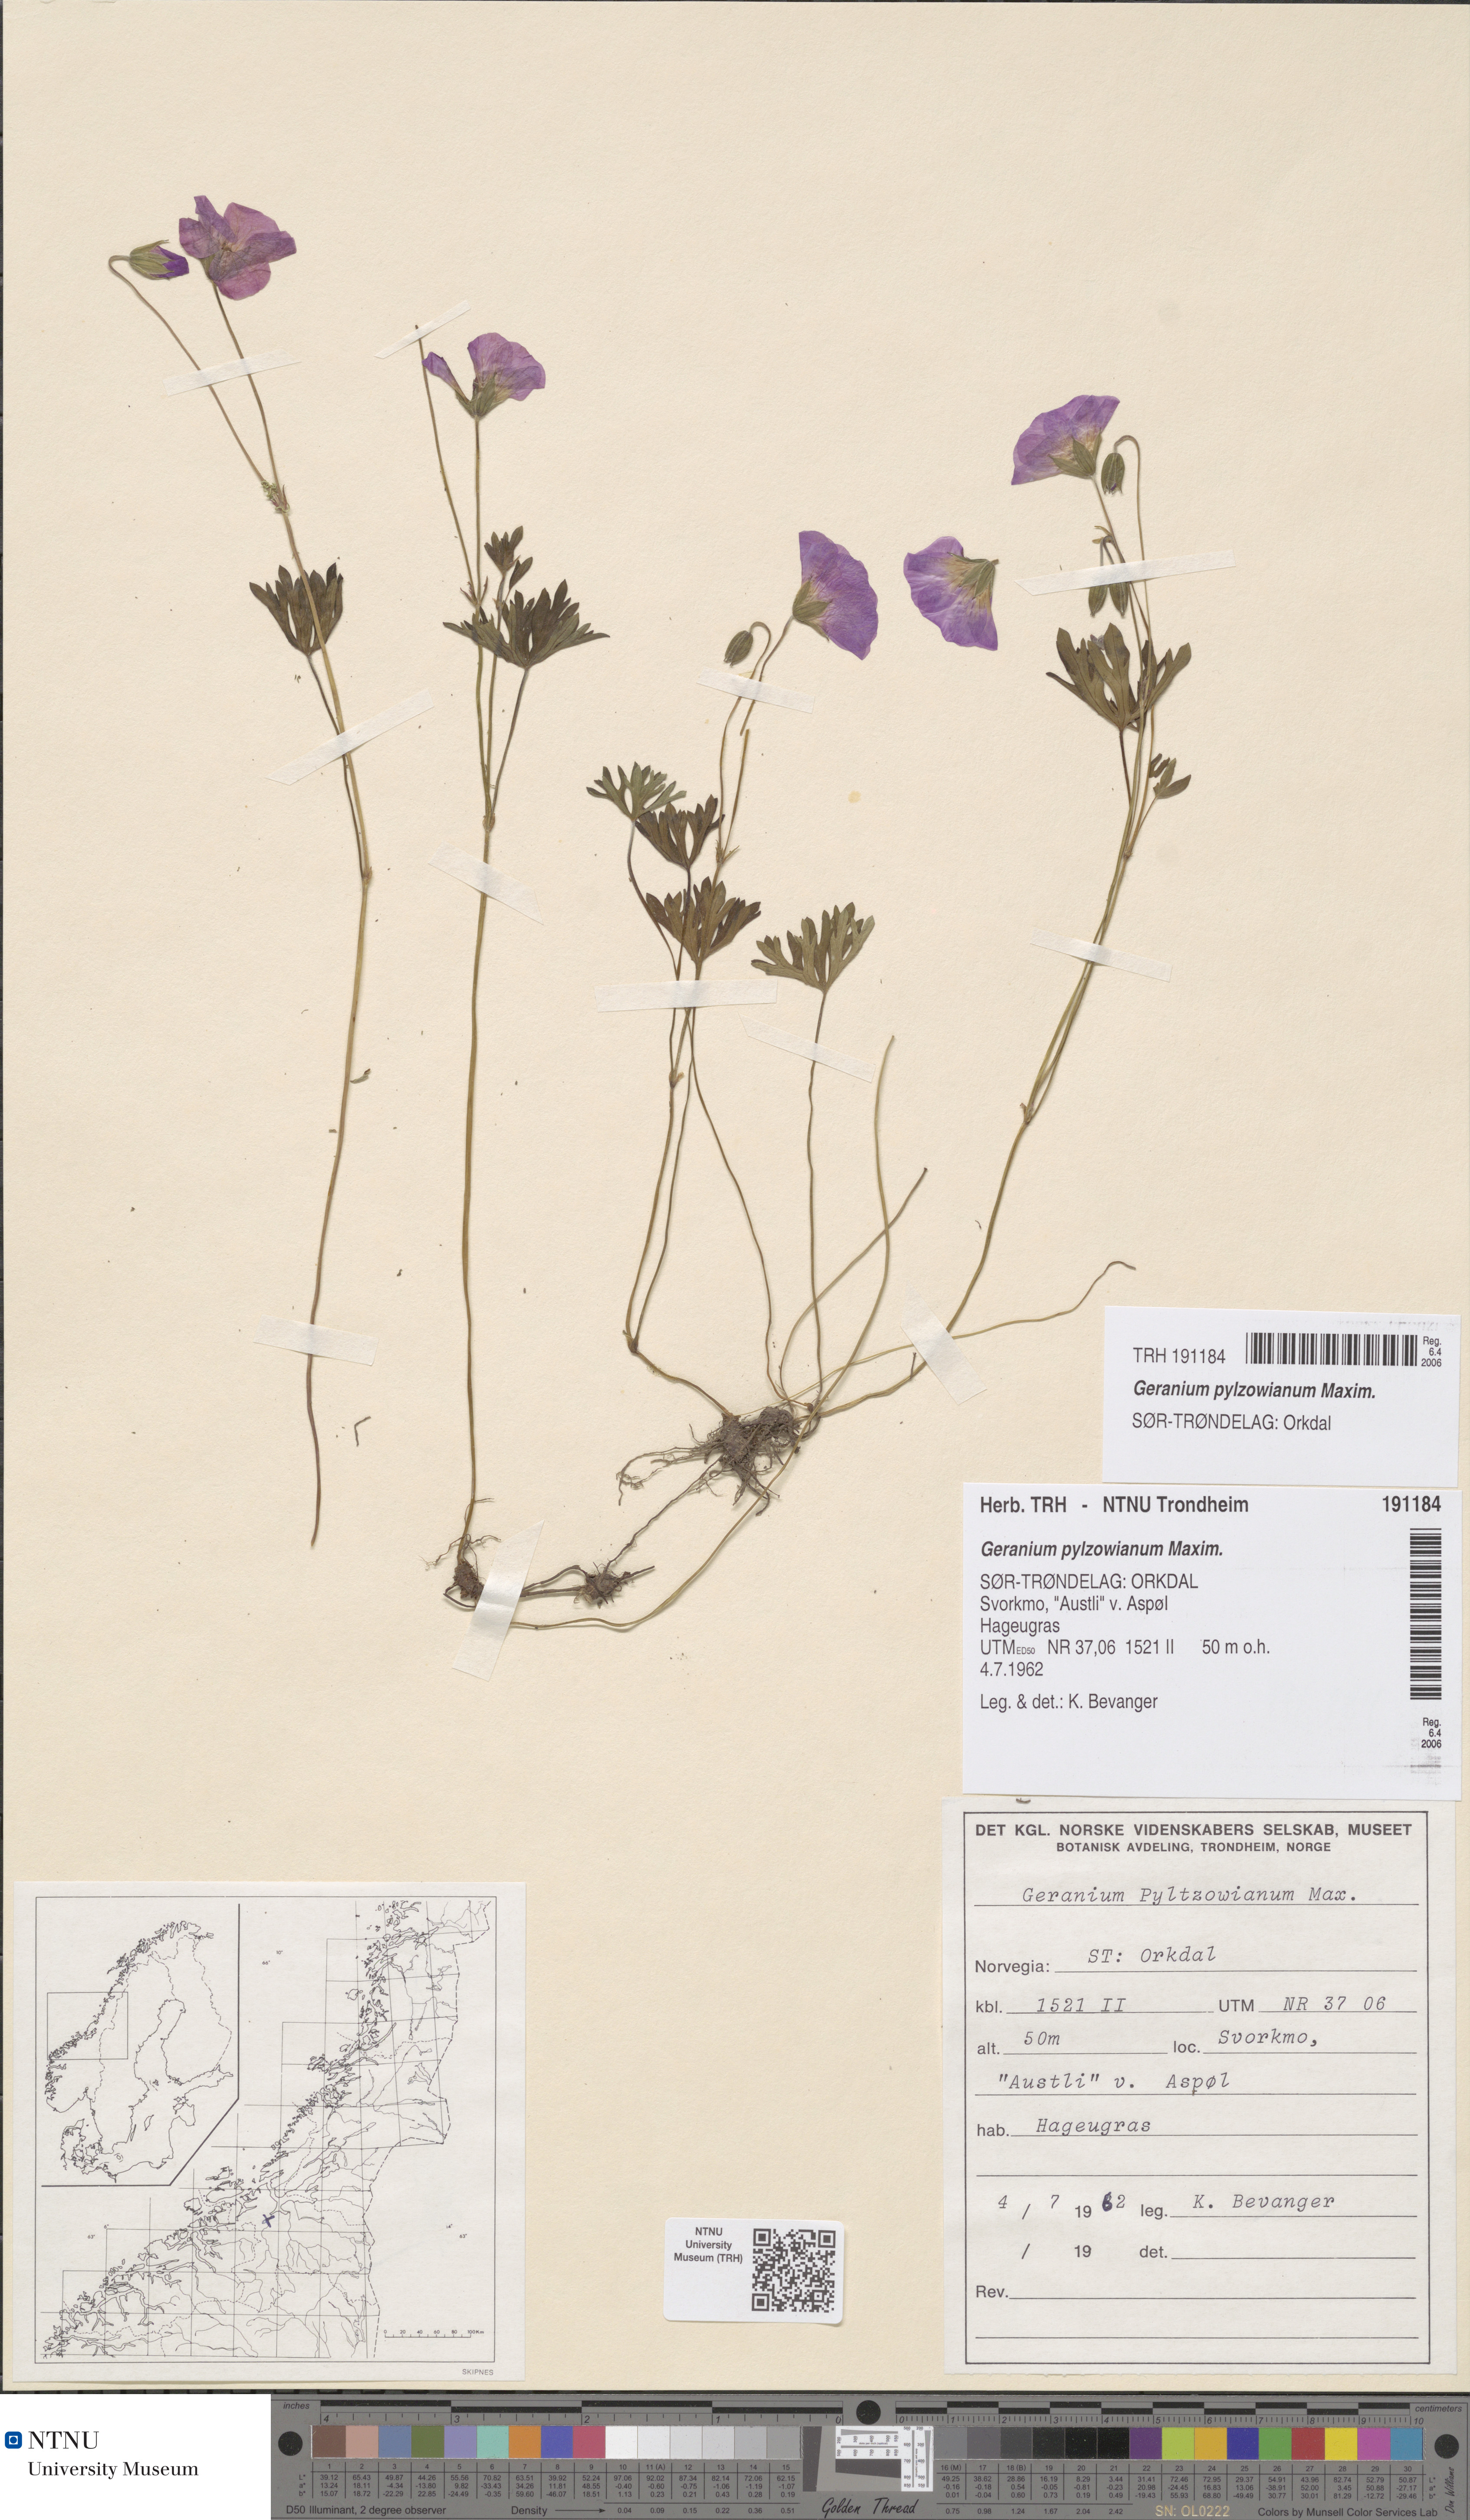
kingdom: Plantae
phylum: Tracheophyta
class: Magnoliopsida
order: Geraniales
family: Geraniaceae
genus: Geranium
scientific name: Geranium pylzowianum
